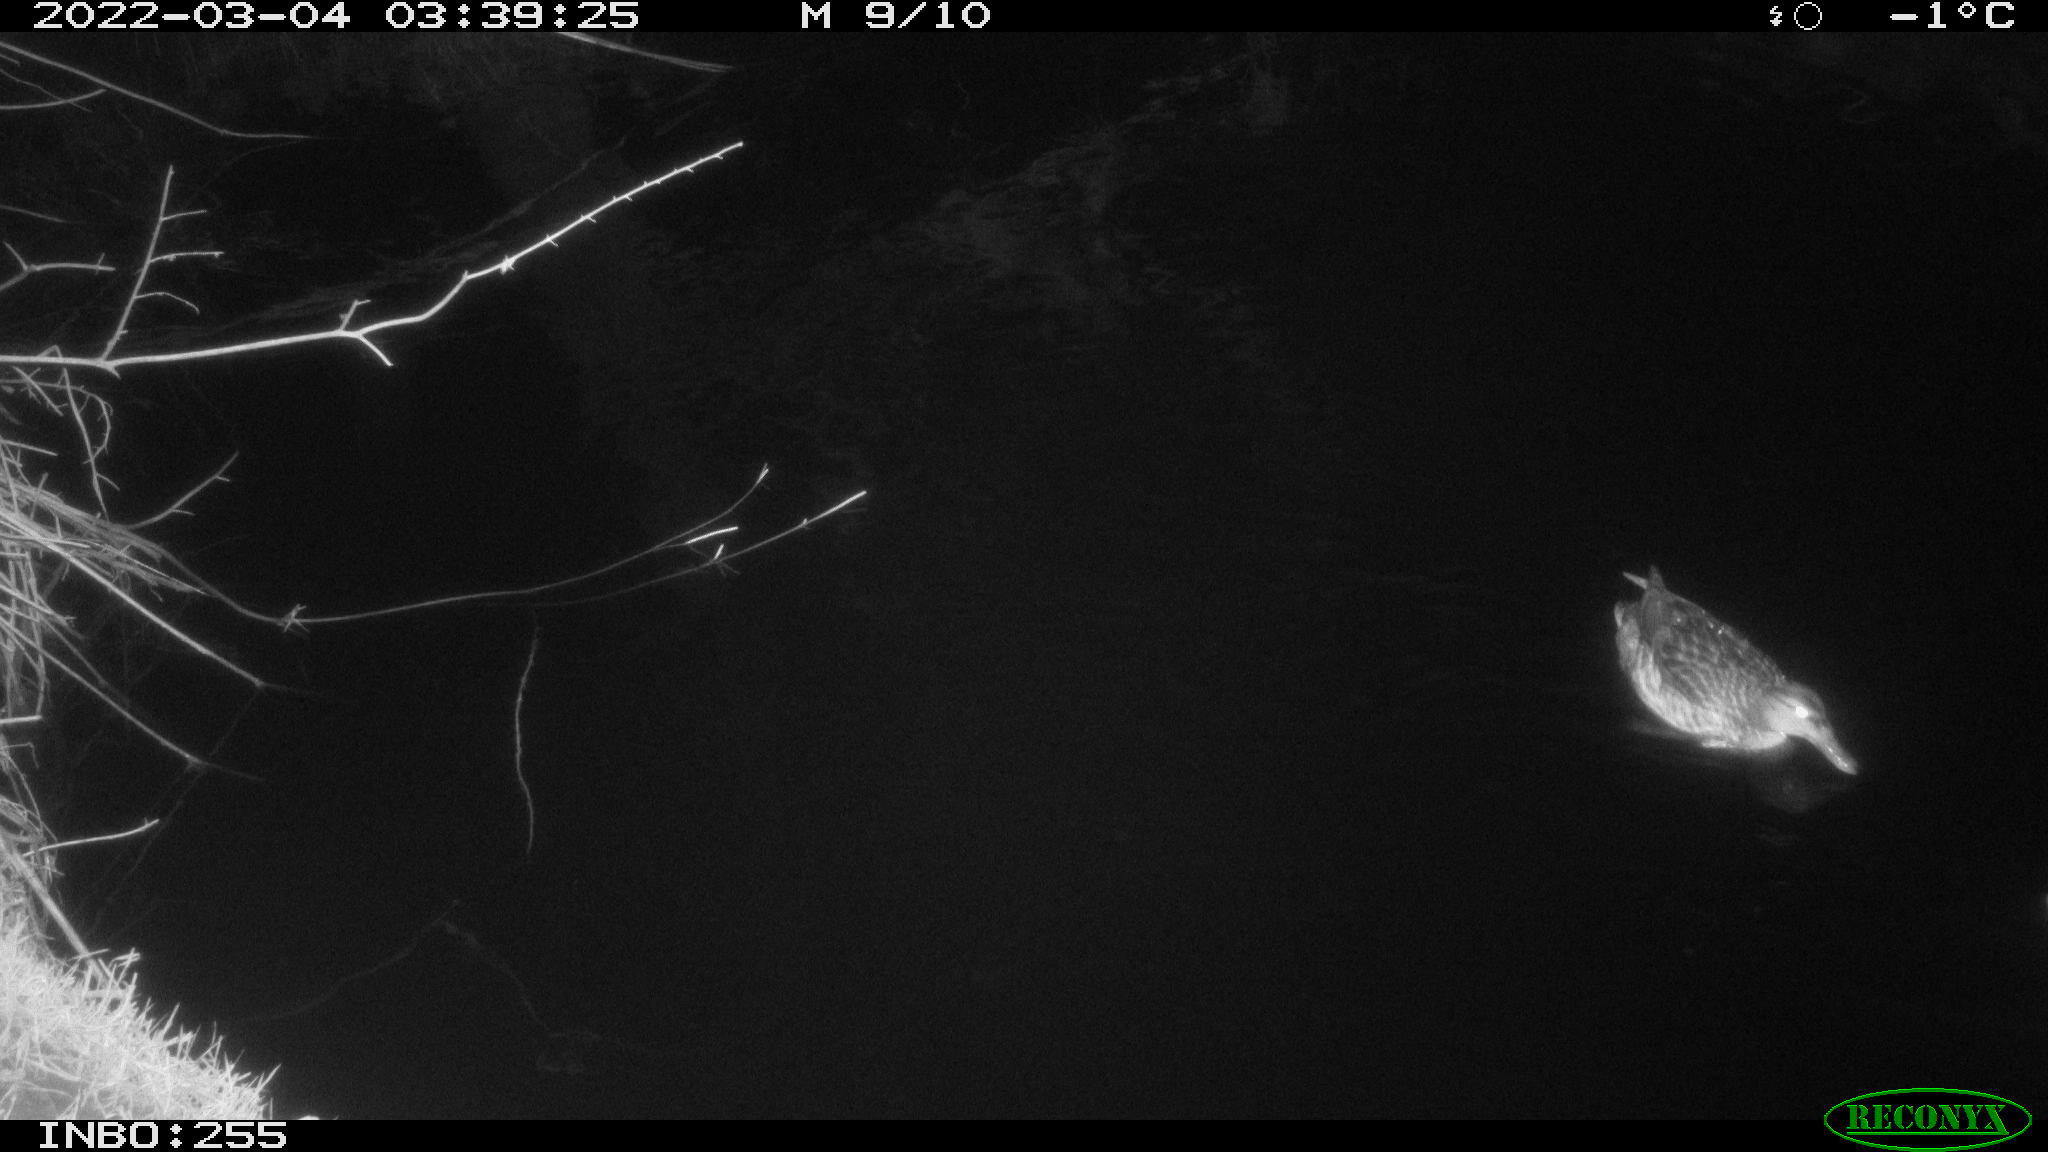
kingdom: Animalia
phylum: Chordata
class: Aves
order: Anseriformes
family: Anatidae
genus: Anas
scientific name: Anas platyrhynchos
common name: Mallard
